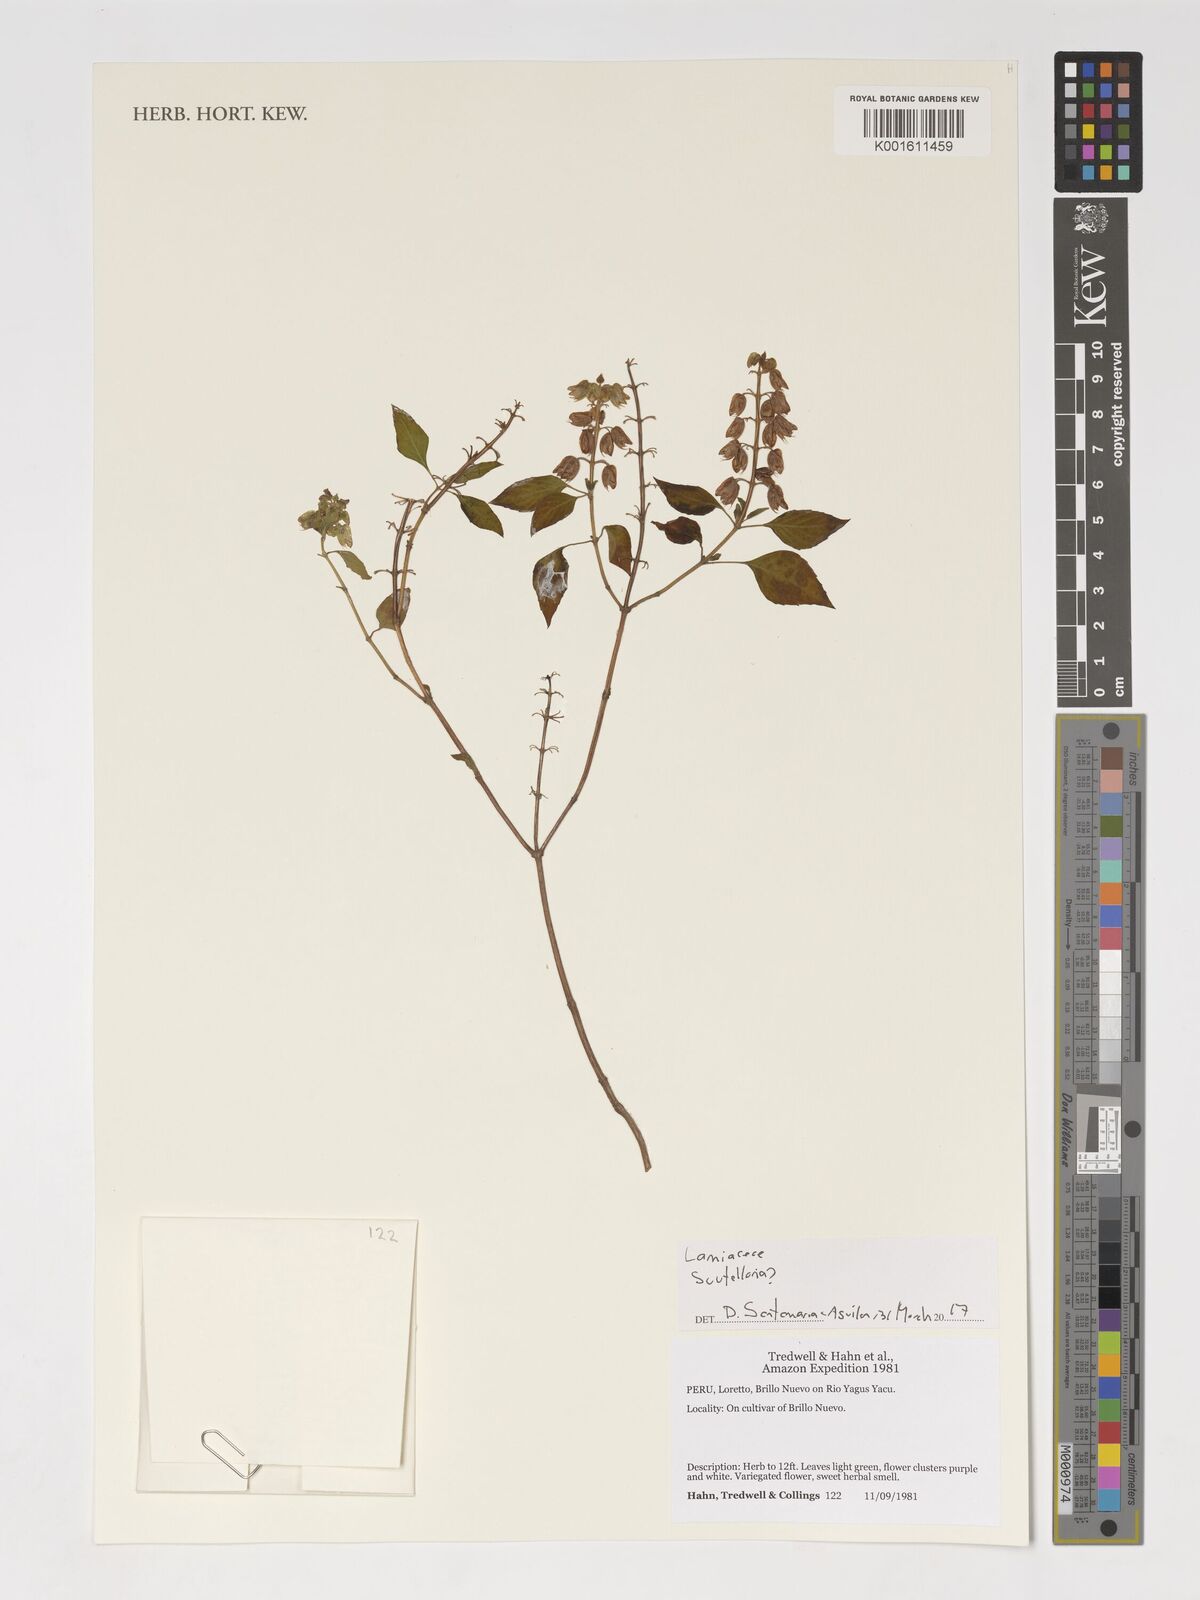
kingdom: Plantae
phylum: Tracheophyta
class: Magnoliopsida
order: Lamiales
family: Lamiaceae
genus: Scutellaria
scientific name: Scutellaria
